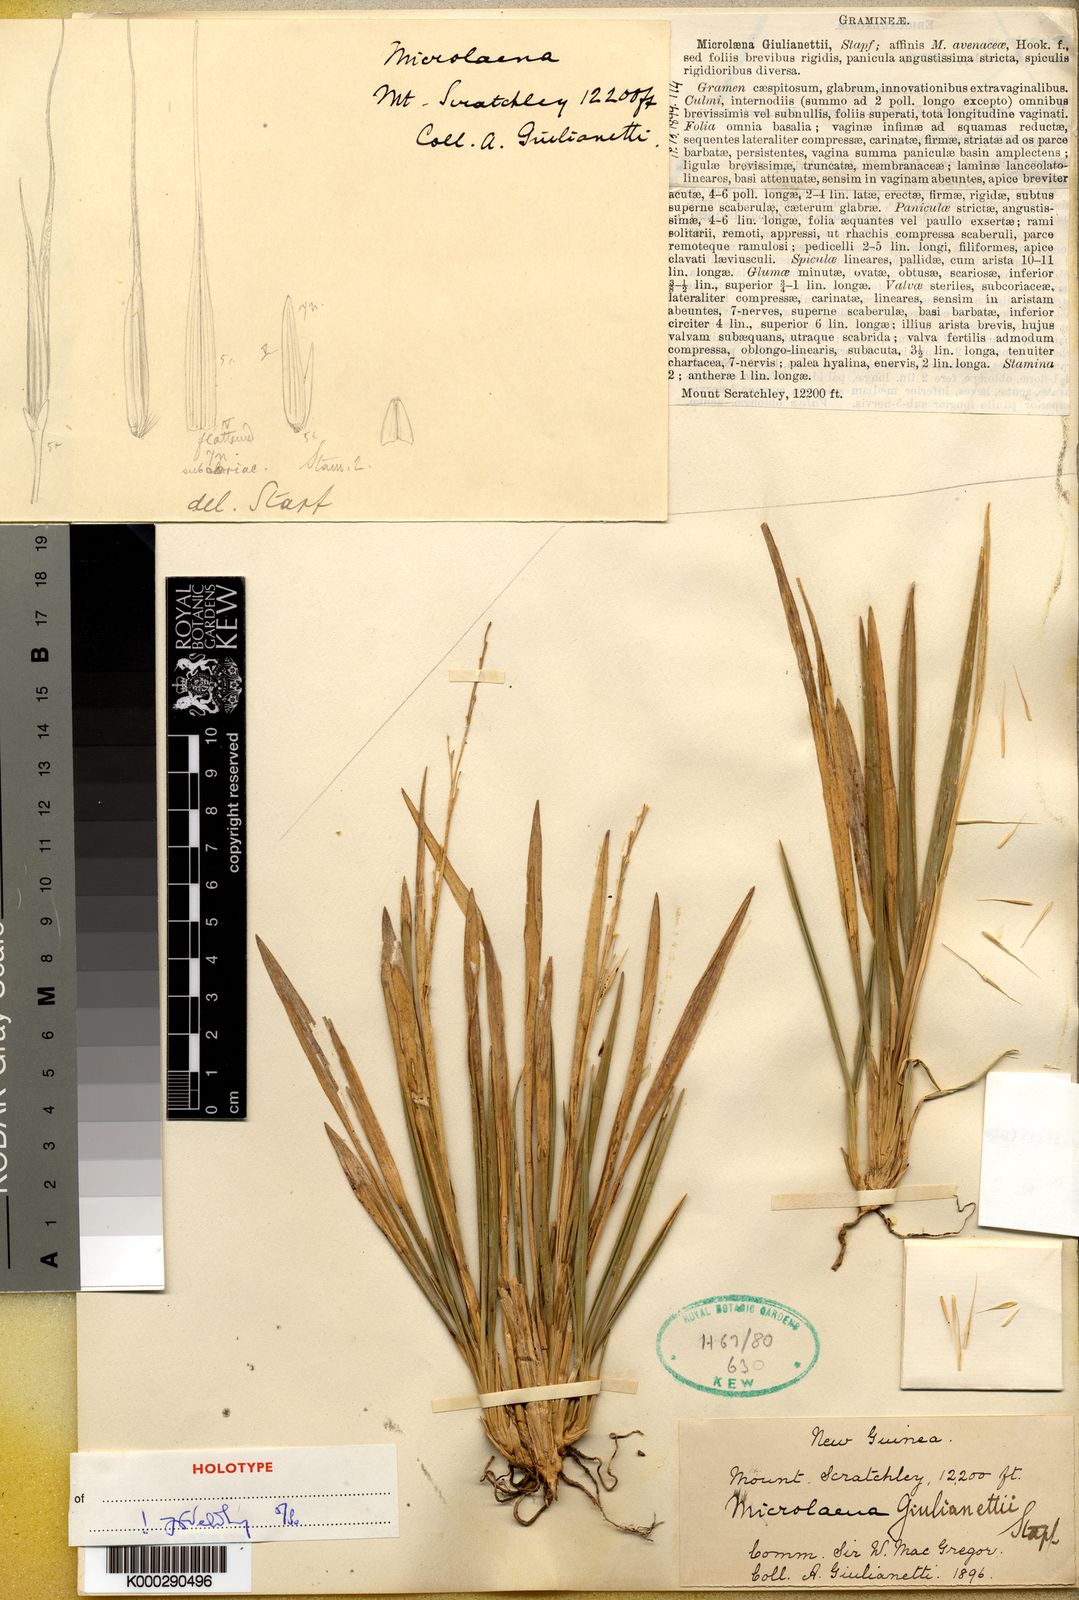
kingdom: Plantae
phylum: Tracheophyta
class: Liliopsida
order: Poales
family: Poaceae
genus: Ehrharta
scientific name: Ehrharta diplax
